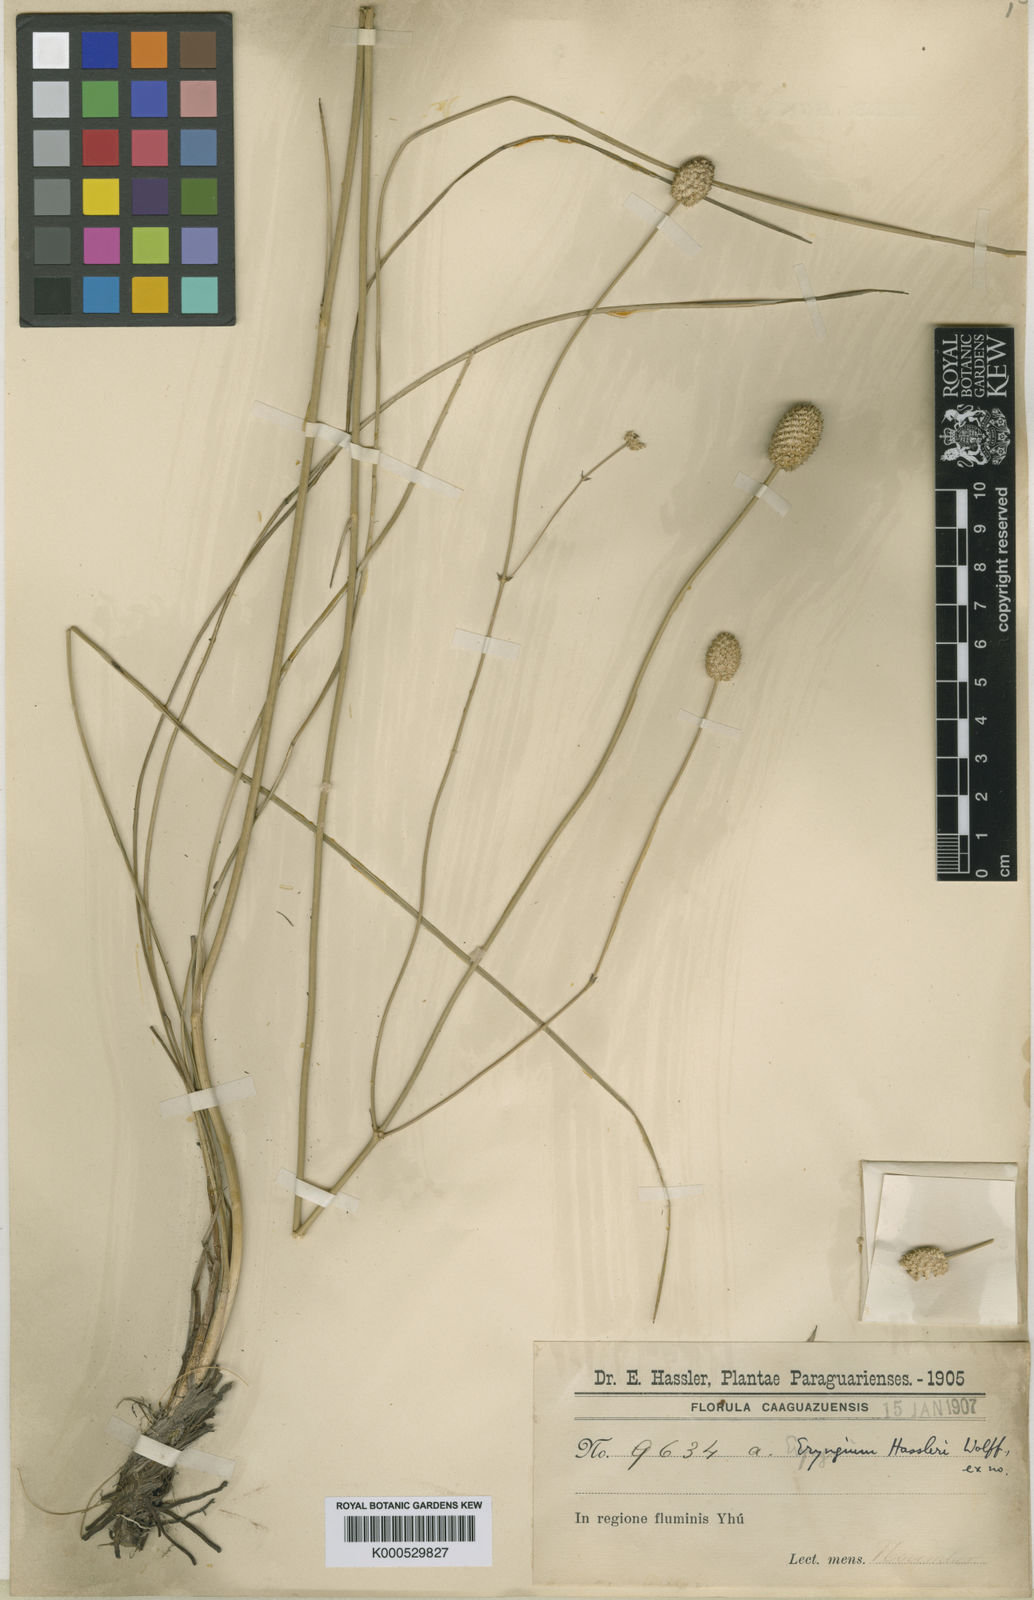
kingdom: Plantae
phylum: Tracheophyta
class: Magnoliopsida
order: Apiales
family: Apiaceae
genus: Eryngium
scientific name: Eryngium hassleri
